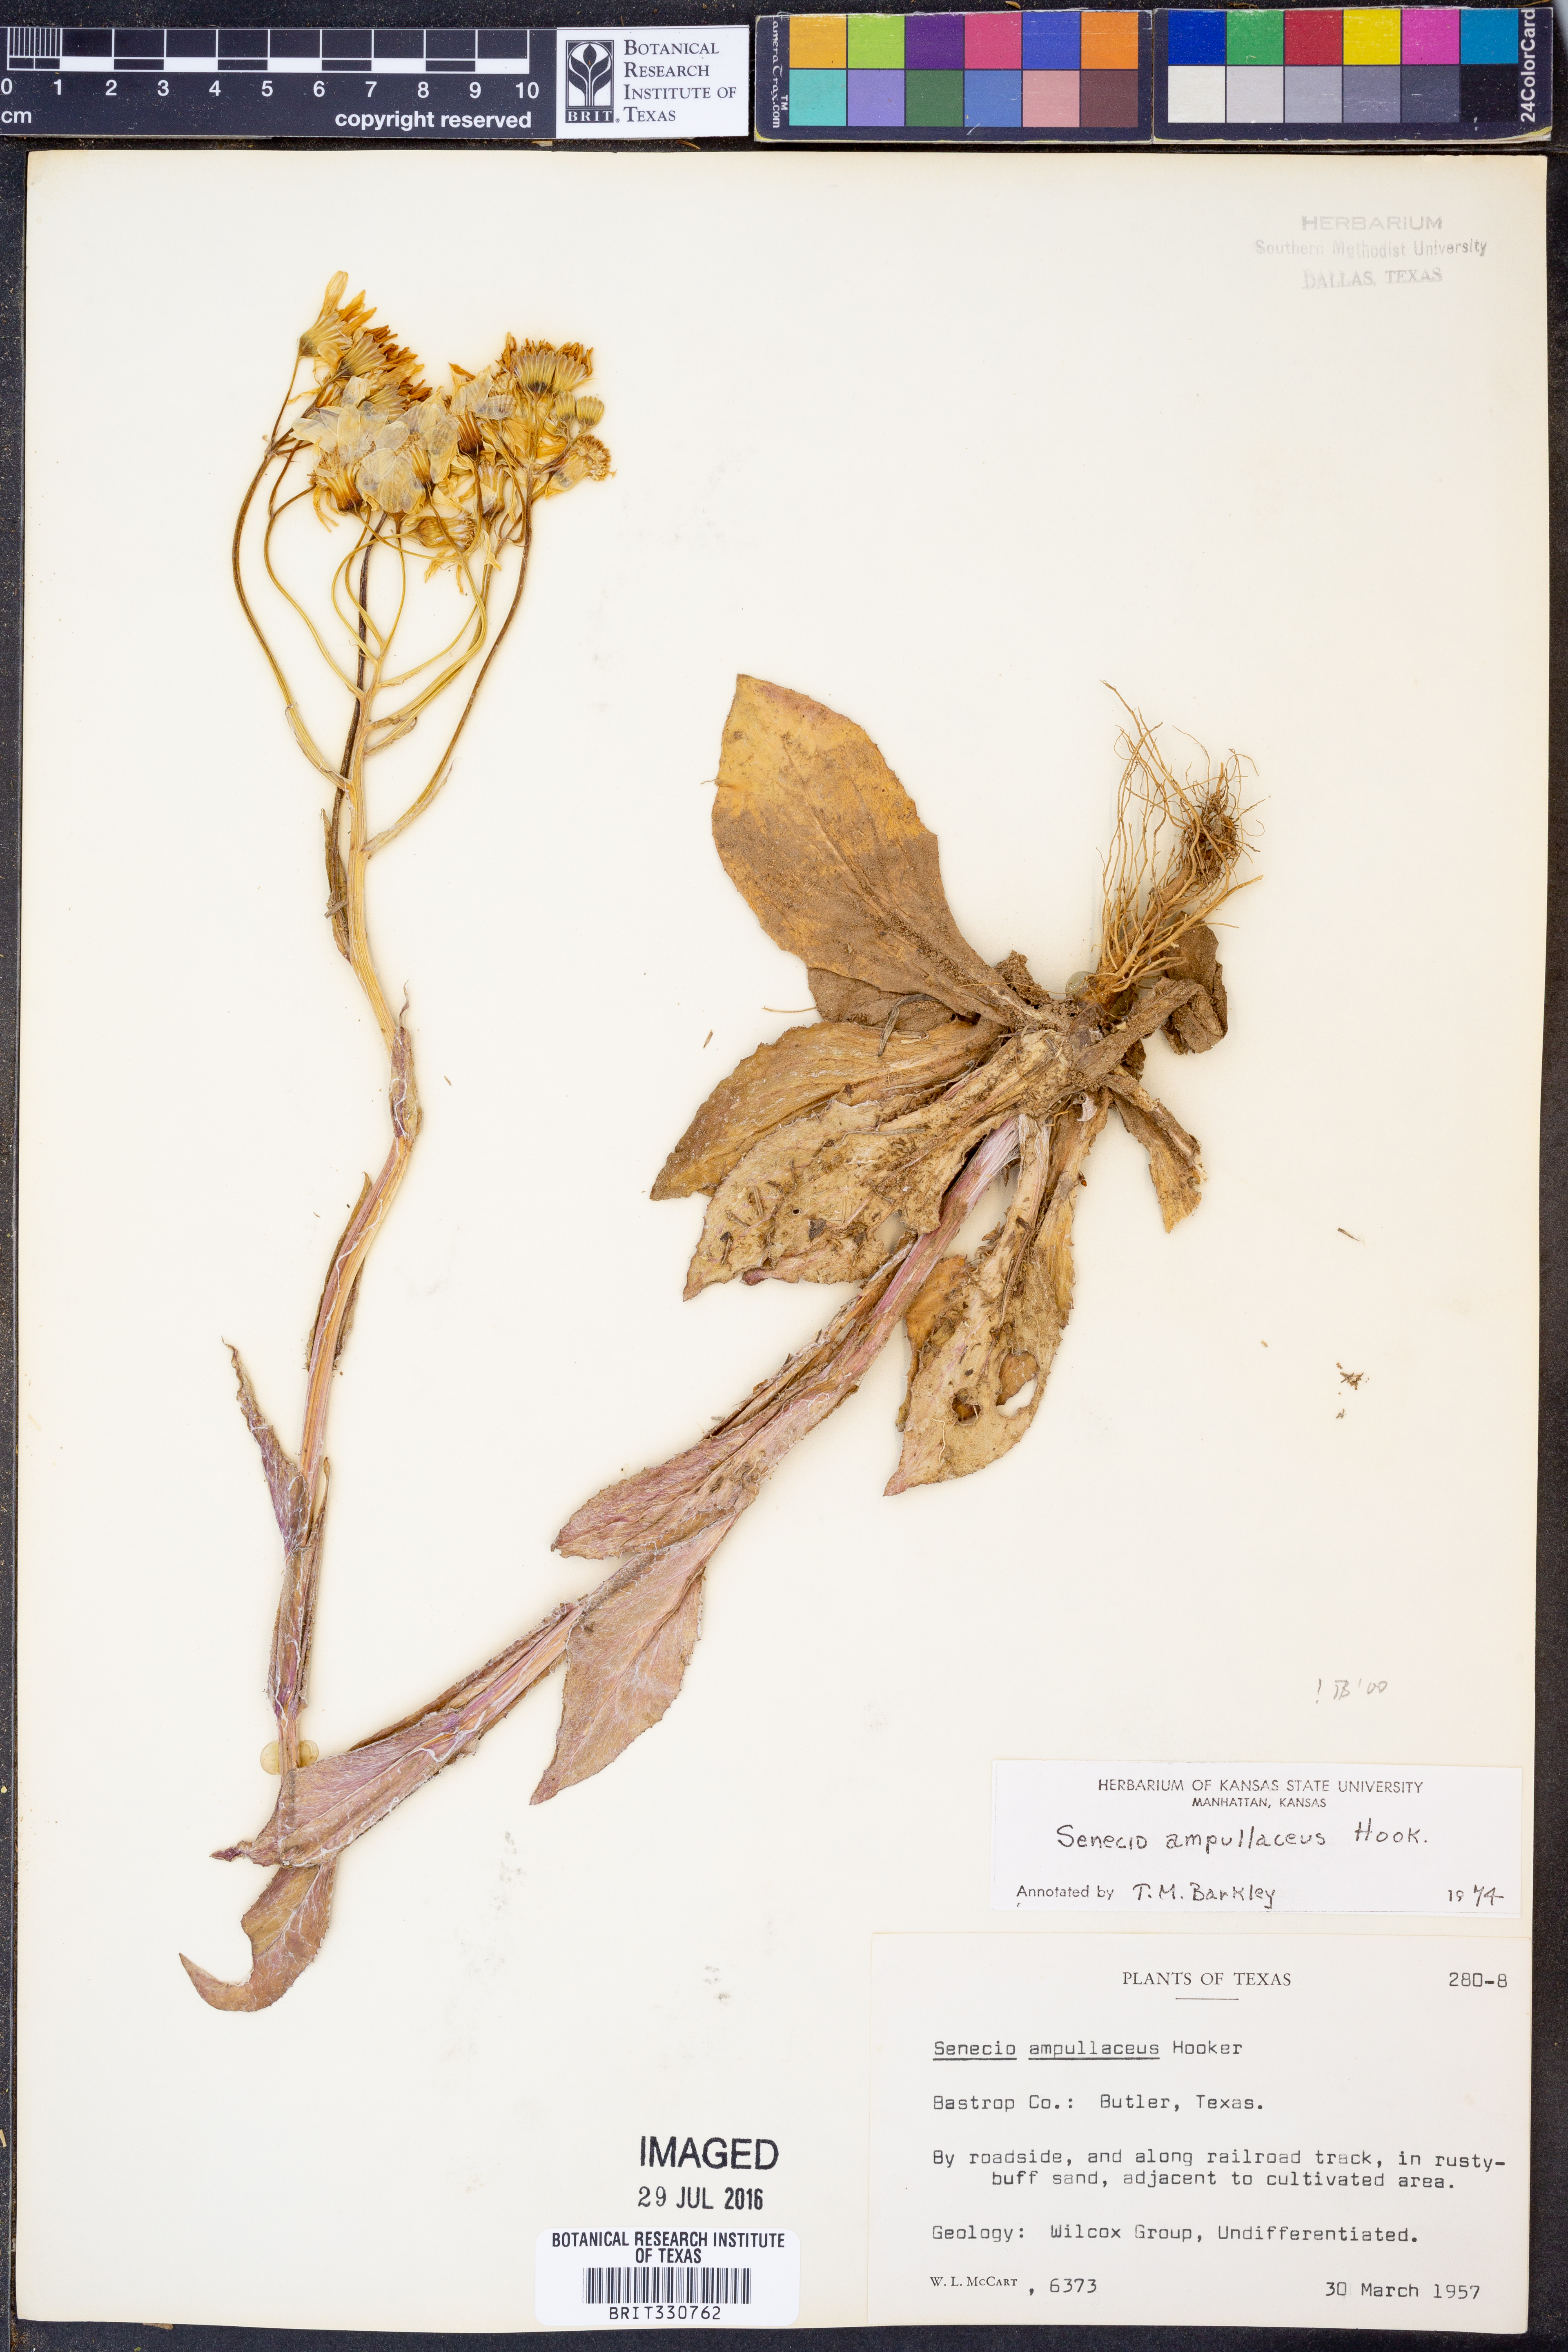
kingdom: Plantae
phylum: Tracheophyta
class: Magnoliopsida
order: Asterales
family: Asteraceae
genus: Senecio
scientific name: Senecio ampullaceus
